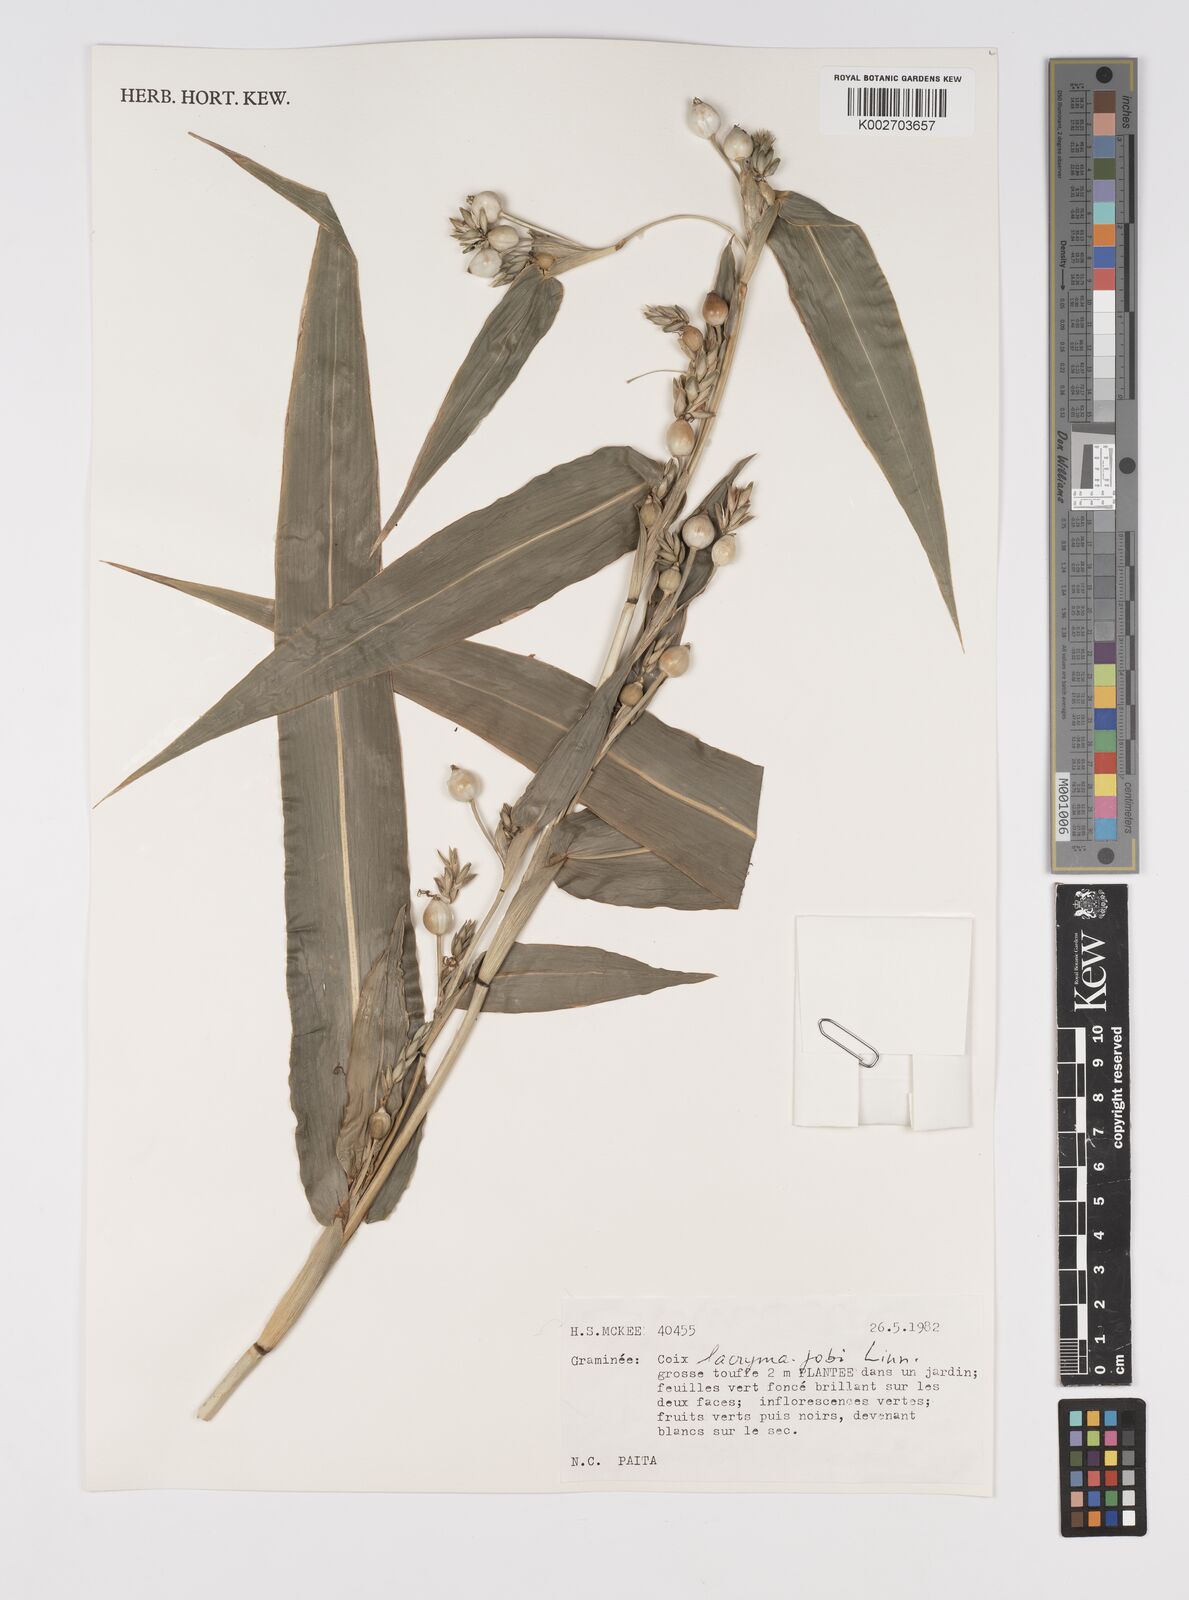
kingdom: Plantae
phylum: Tracheophyta
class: Liliopsida
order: Poales
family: Poaceae
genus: Coix
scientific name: Coix lacryma-jobi
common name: Job's tears
